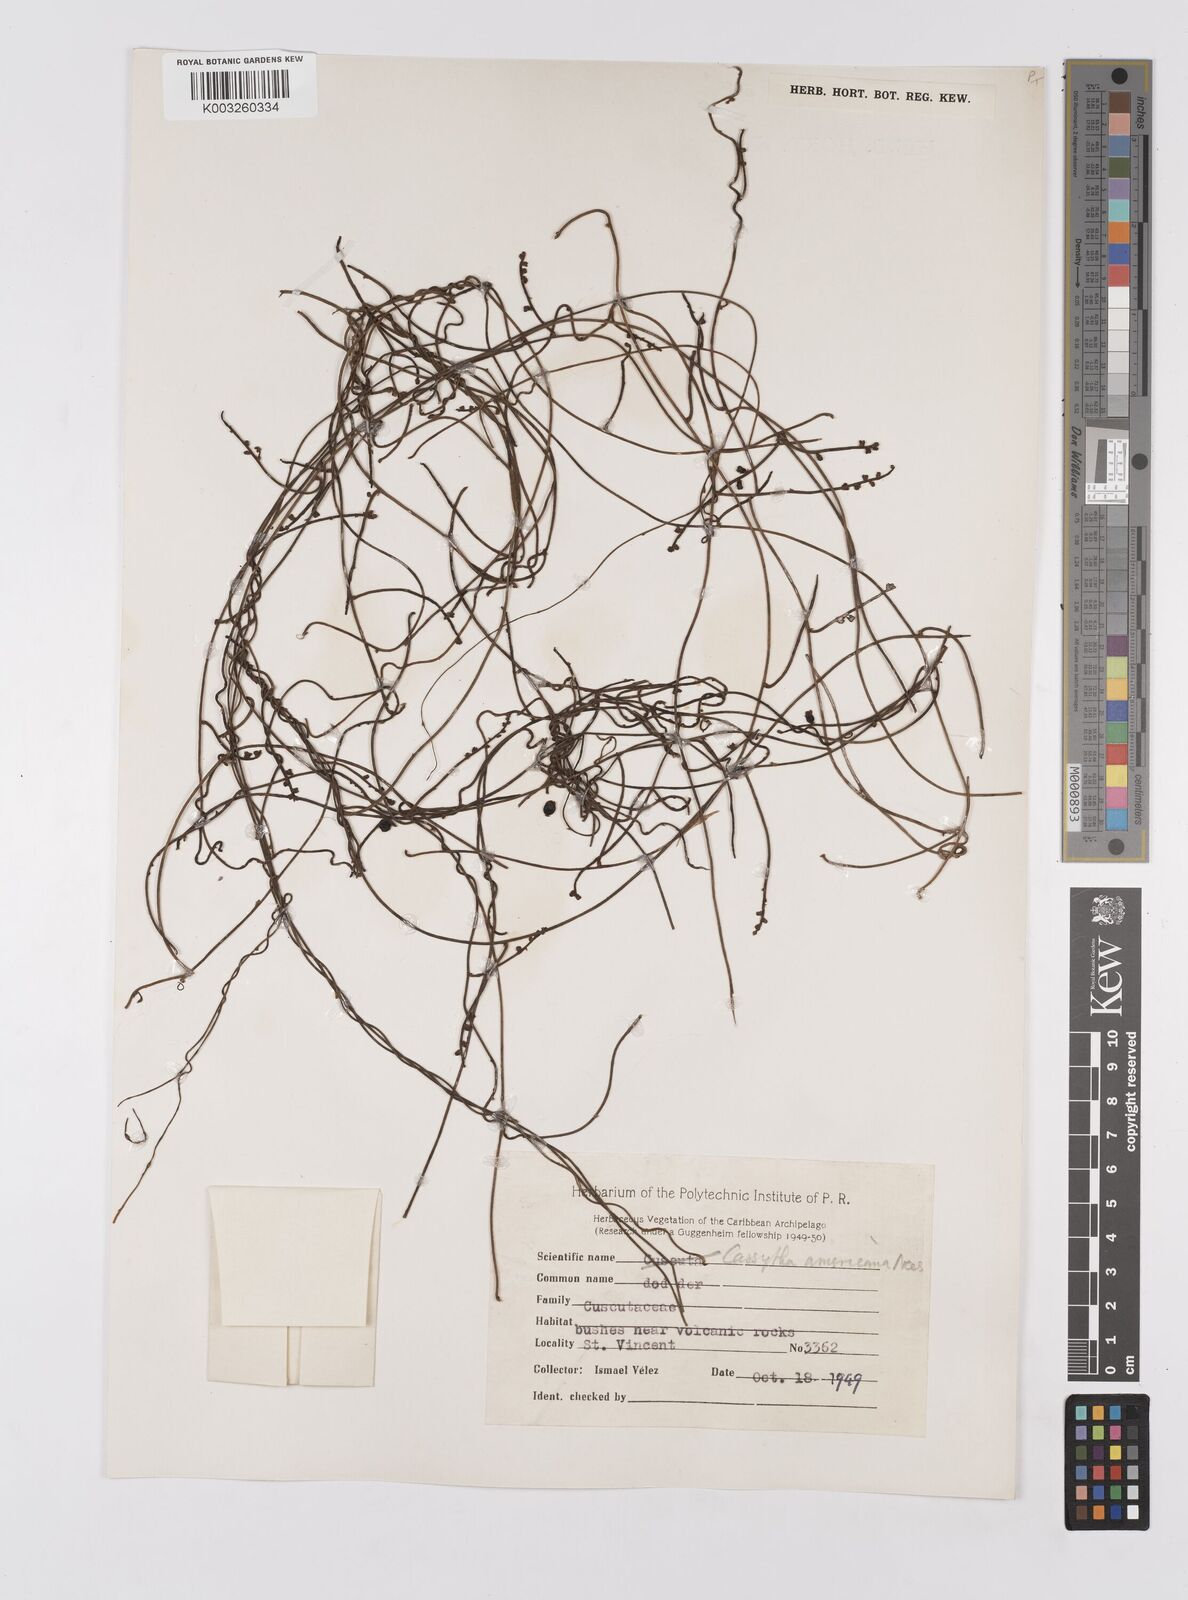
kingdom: Plantae
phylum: Tracheophyta
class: Magnoliopsida
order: Laurales
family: Lauraceae
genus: Cassytha
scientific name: Cassytha filiformis
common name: Dodder-laurel
